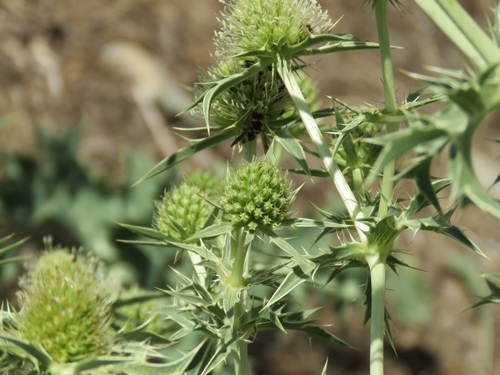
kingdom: Plantae
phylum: Tracheophyta
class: Magnoliopsida
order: Apiales
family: Apiaceae
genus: Eryngium
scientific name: Eryngium campestre
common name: Field eryngo
